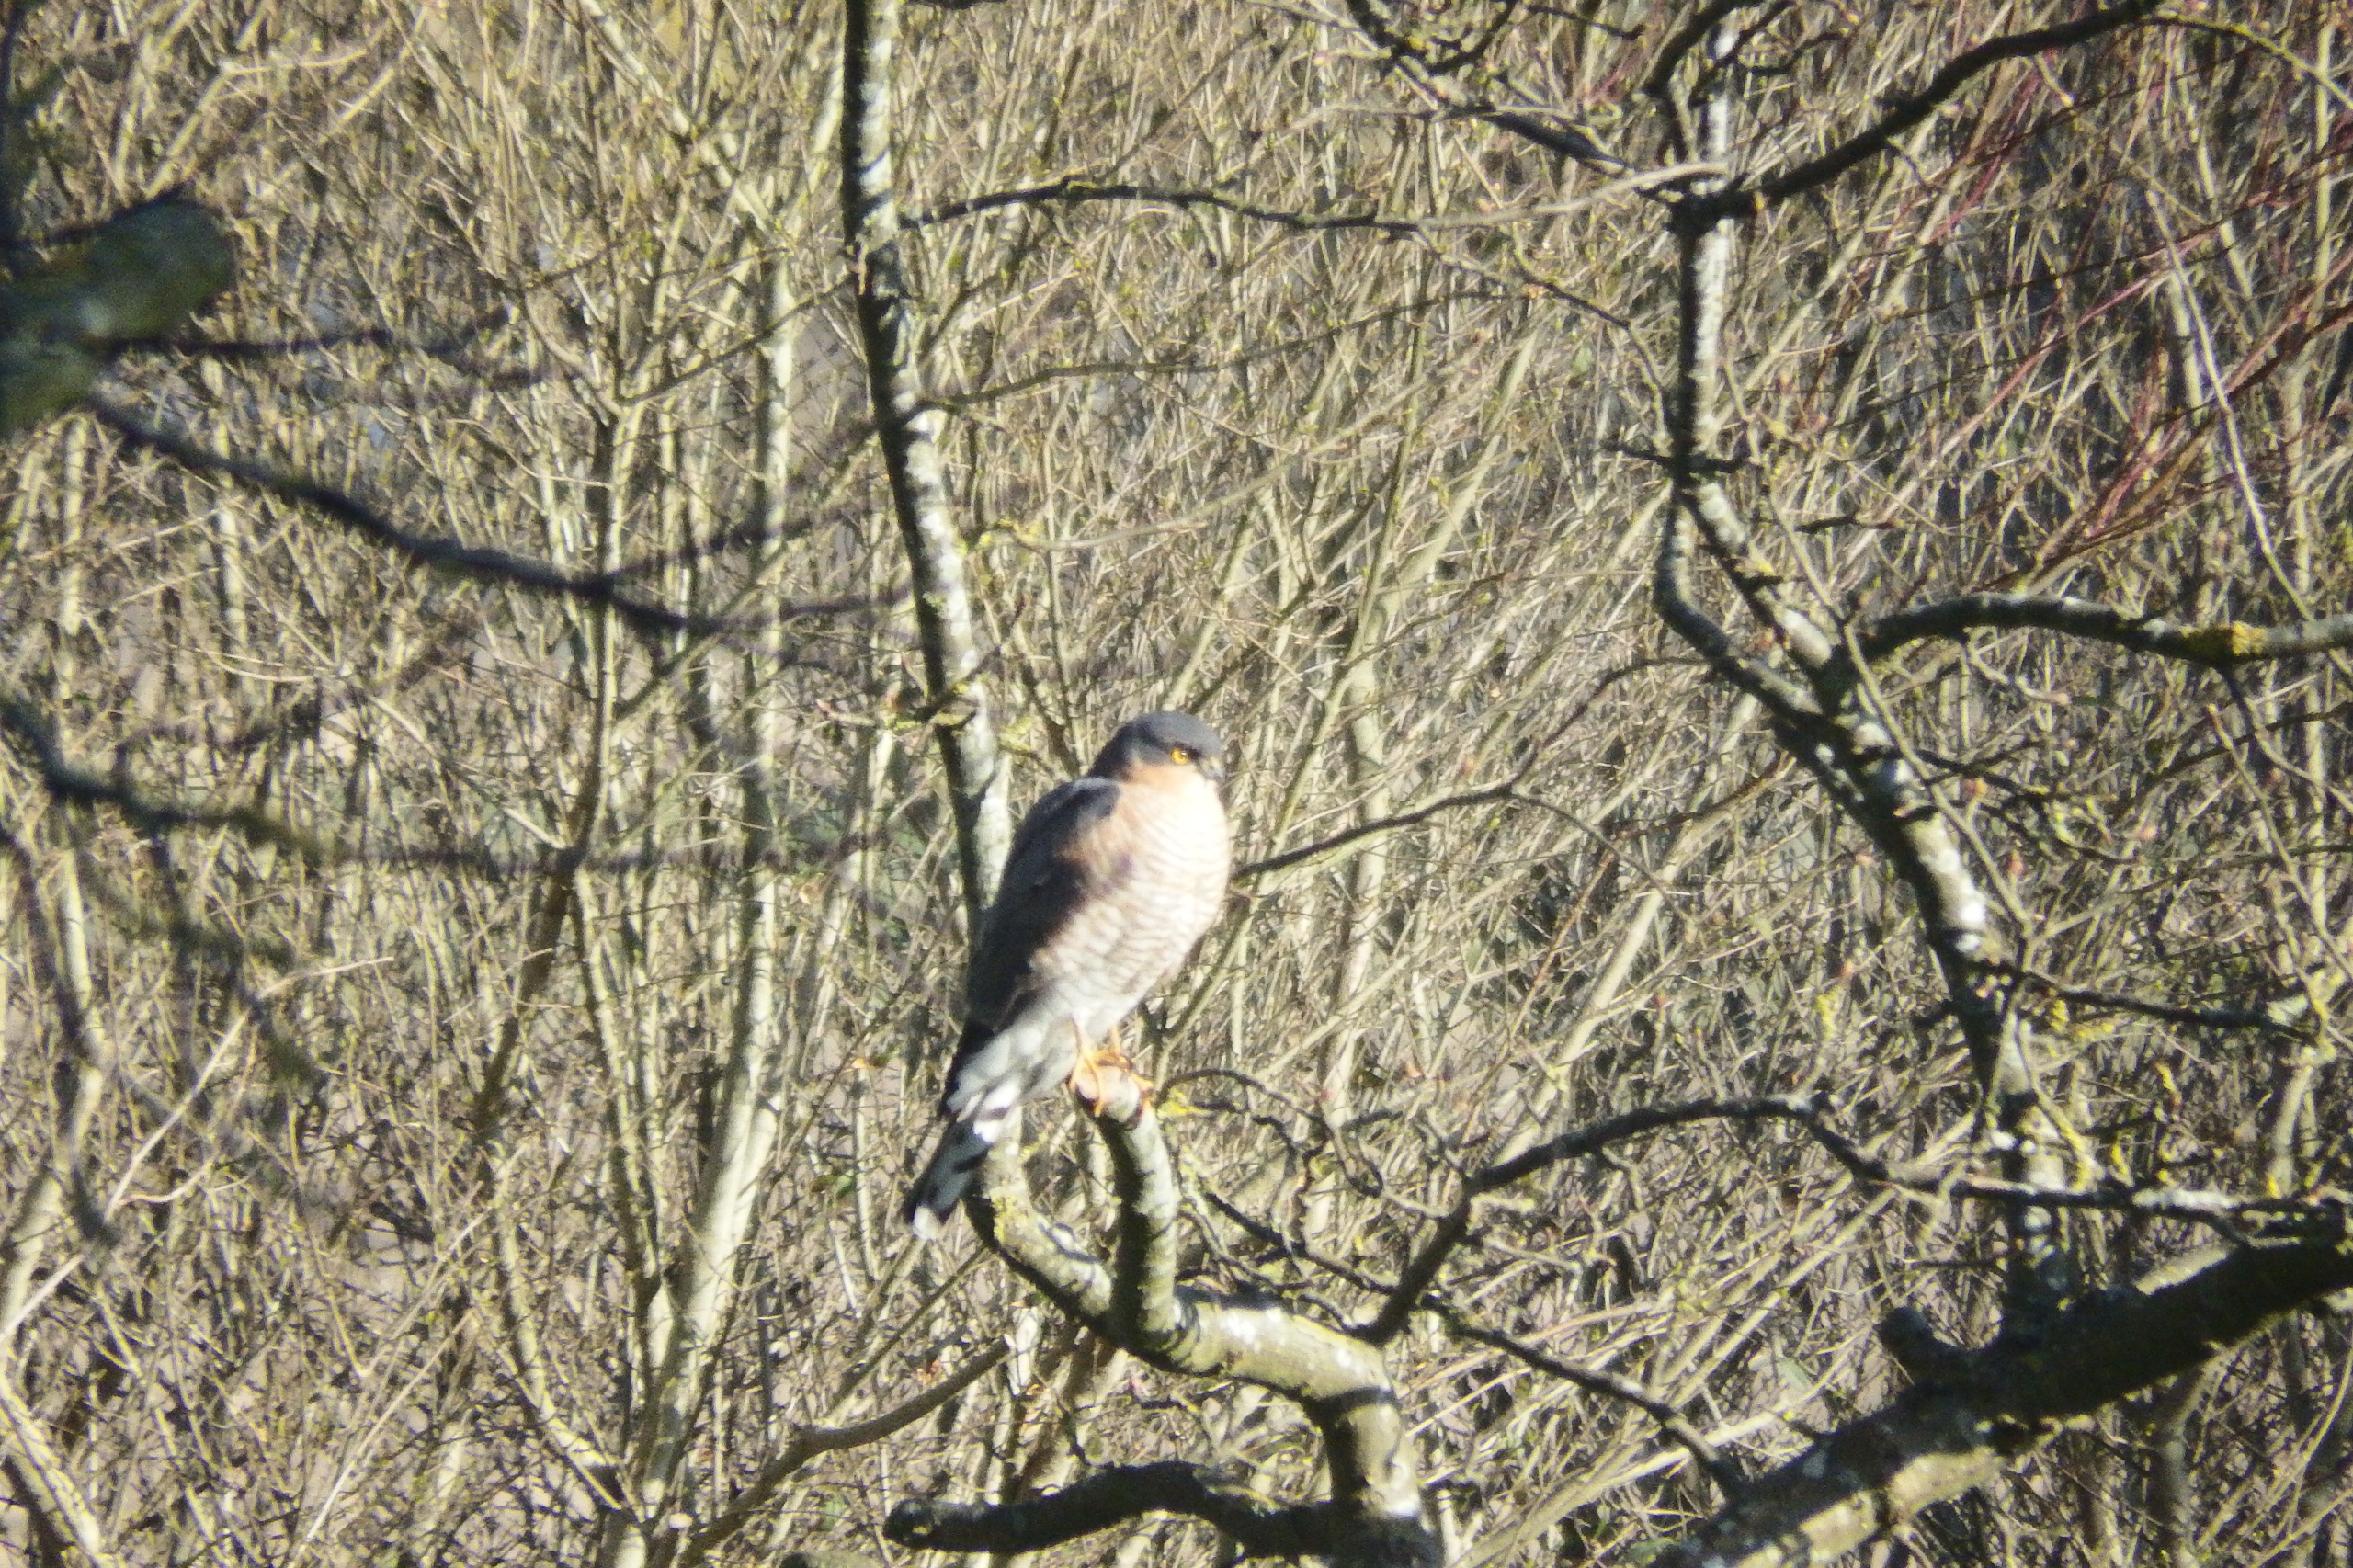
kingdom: Animalia
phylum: Chordata
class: Aves
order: Accipitriformes
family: Accipitridae
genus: Accipiter
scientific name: Accipiter nisus
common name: Spurvehøg
